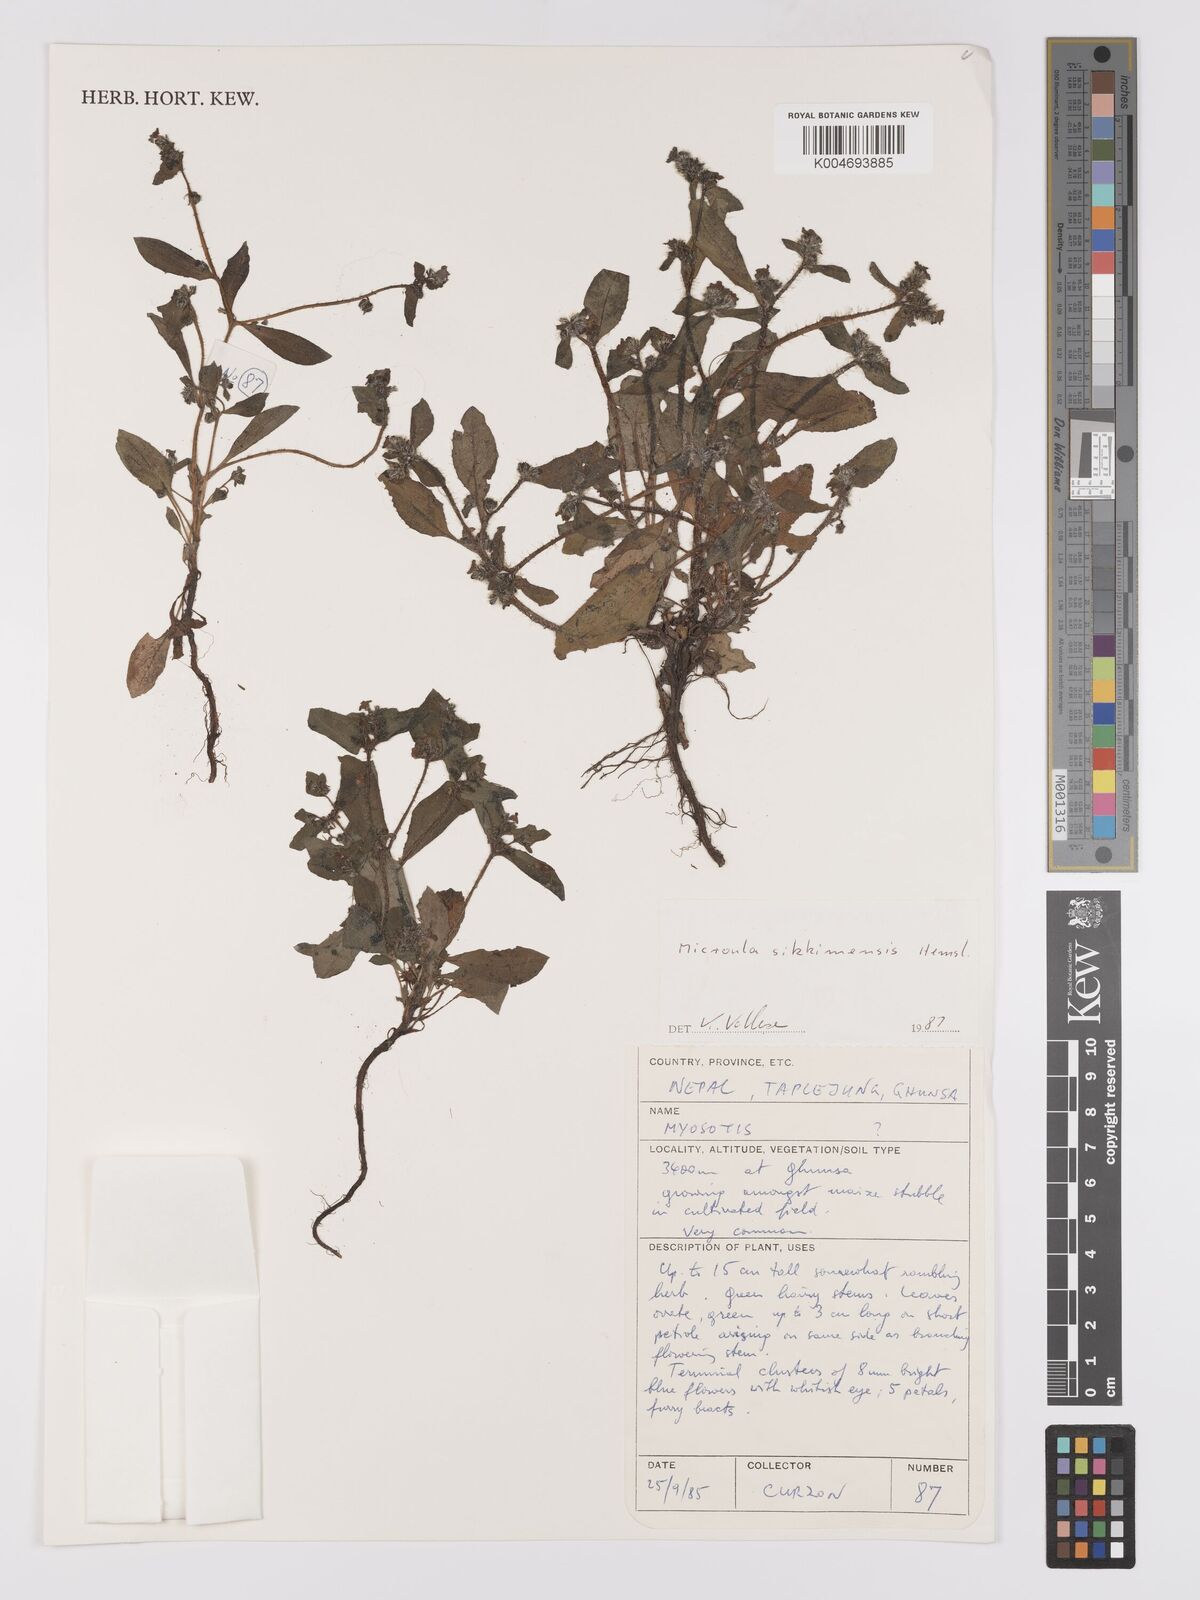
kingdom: Plantae
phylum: Tracheophyta
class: Magnoliopsida
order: Boraginales
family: Boraginaceae
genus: Microula
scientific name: Microula sikkimensis
